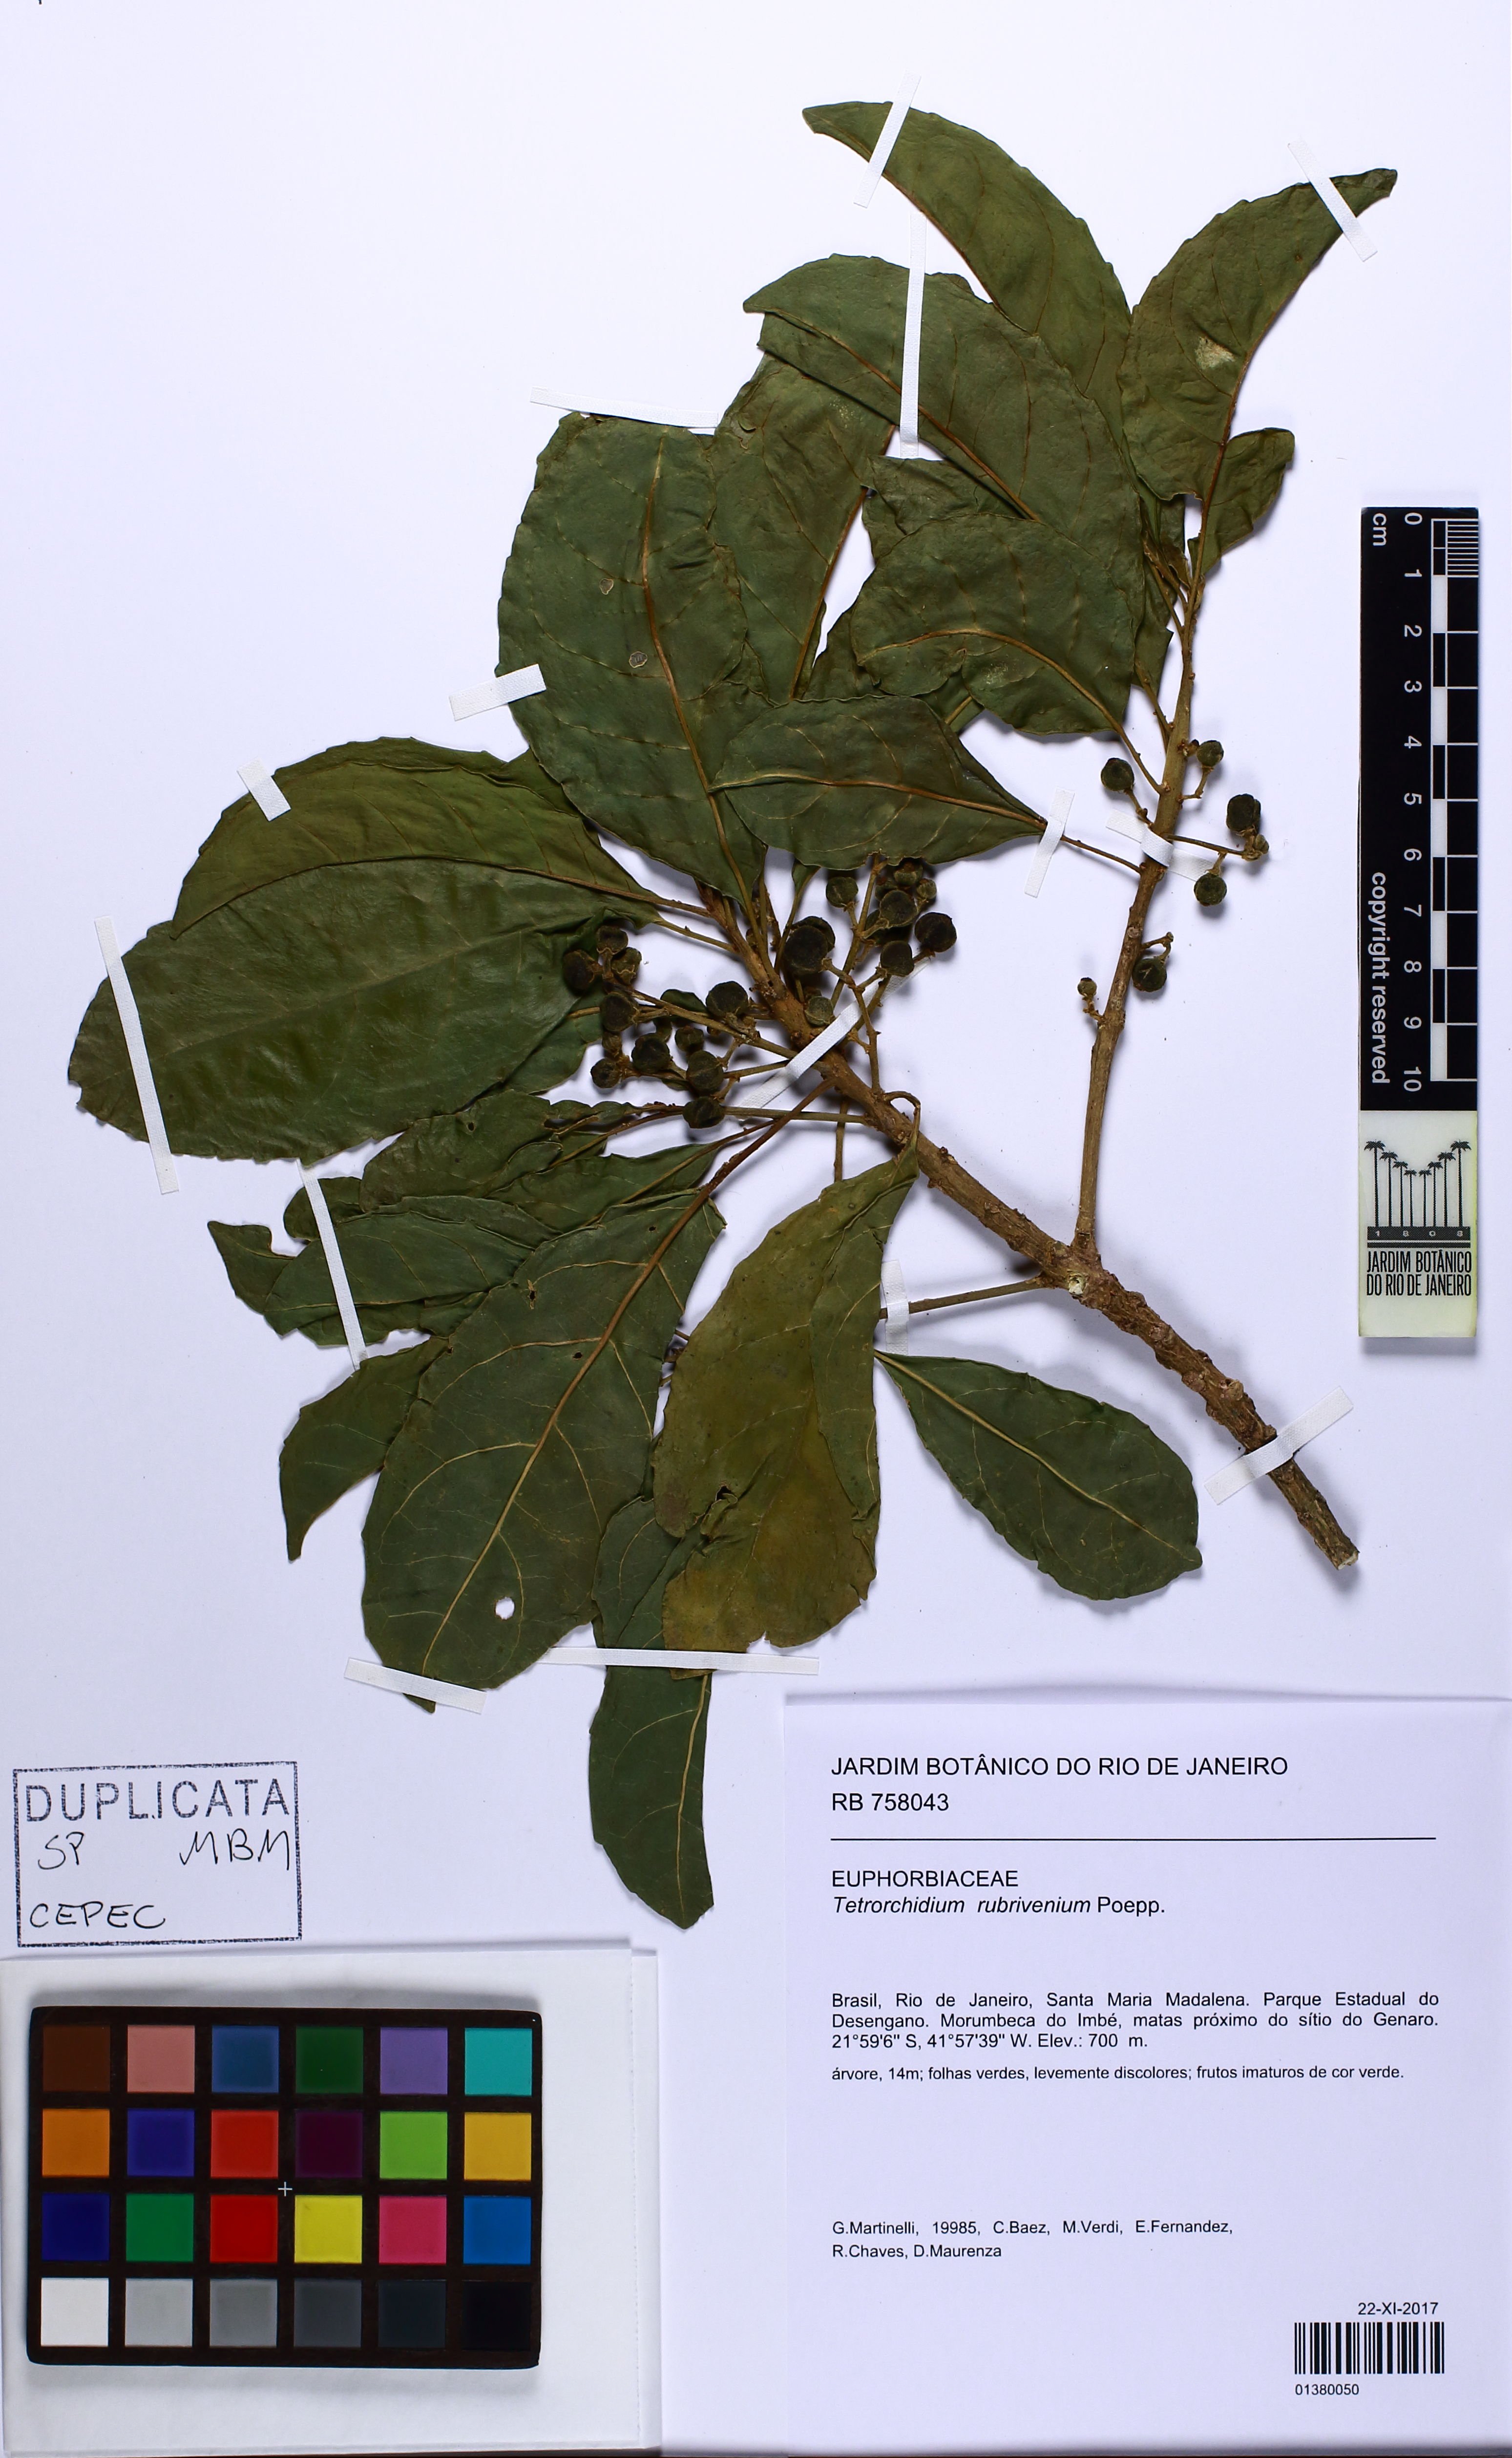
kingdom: Plantae
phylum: Tracheophyta
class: Magnoliopsida
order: Malpighiales
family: Euphorbiaceae
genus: Tetrorchidium
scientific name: Tetrorchidium rubrivenium
